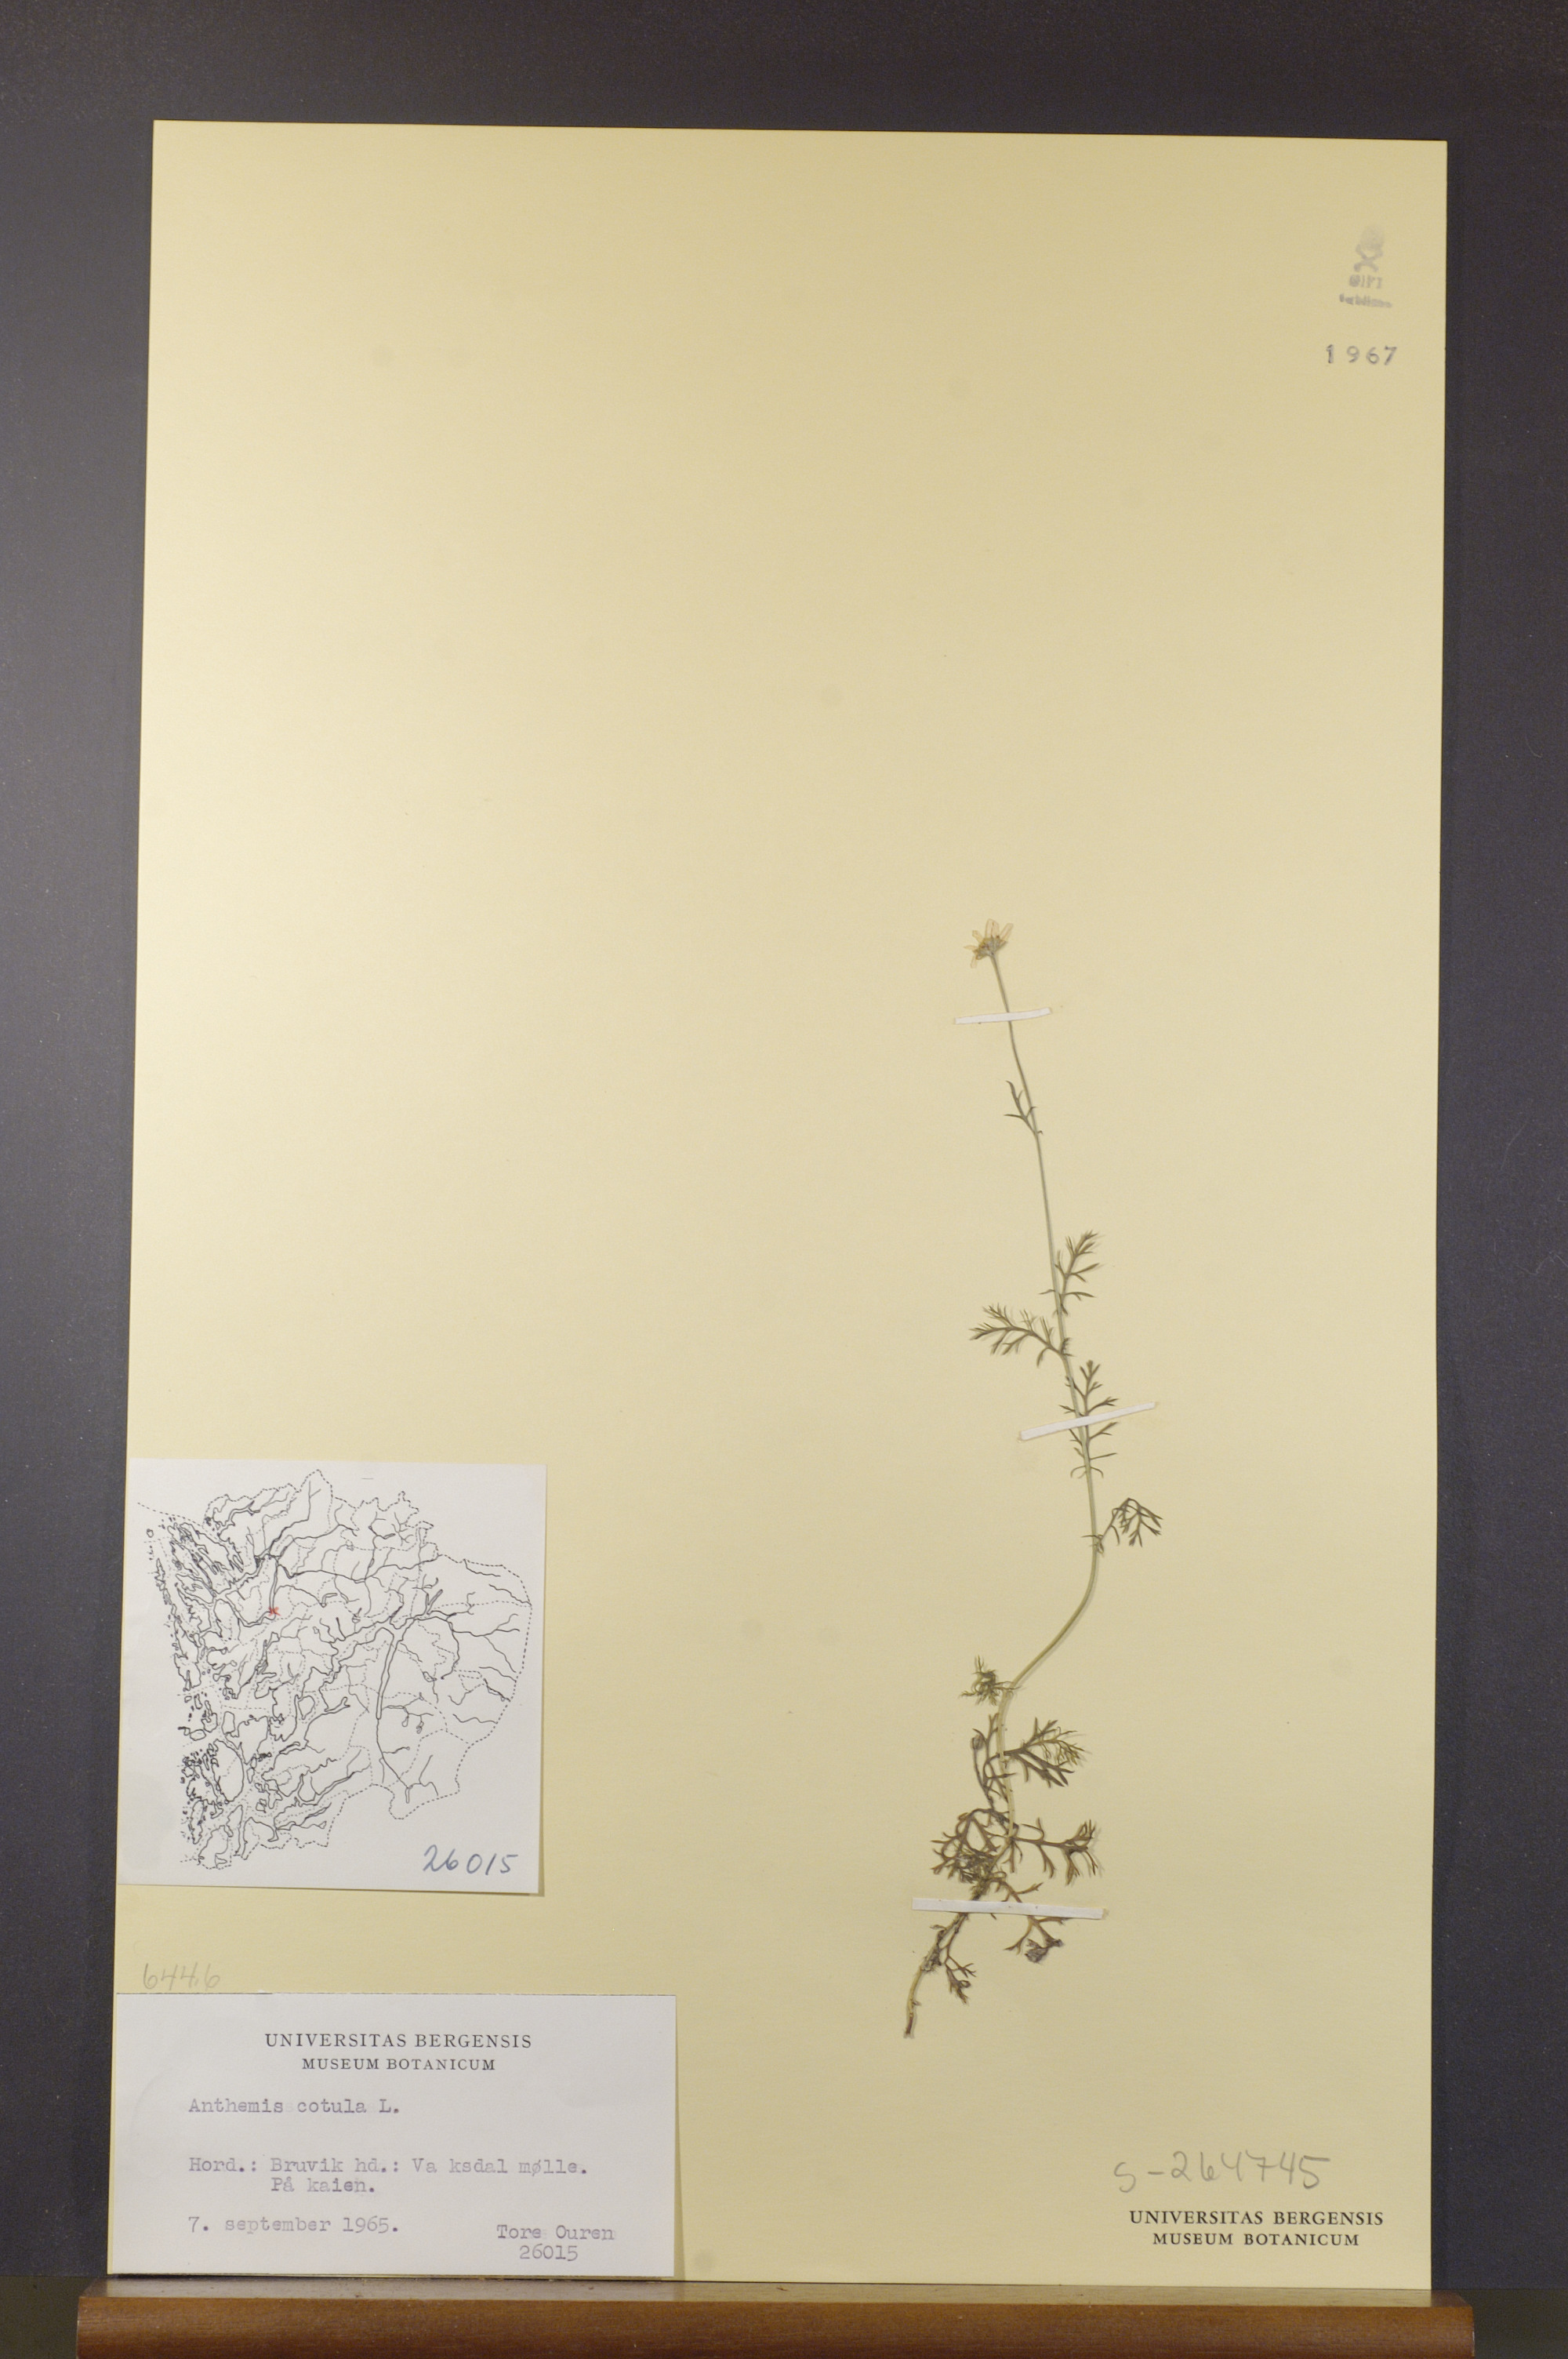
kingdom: Plantae
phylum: Tracheophyta
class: Magnoliopsida
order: Asterales
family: Asteraceae
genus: Anthemis
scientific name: Anthemis cotula
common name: Stinking chamomile
